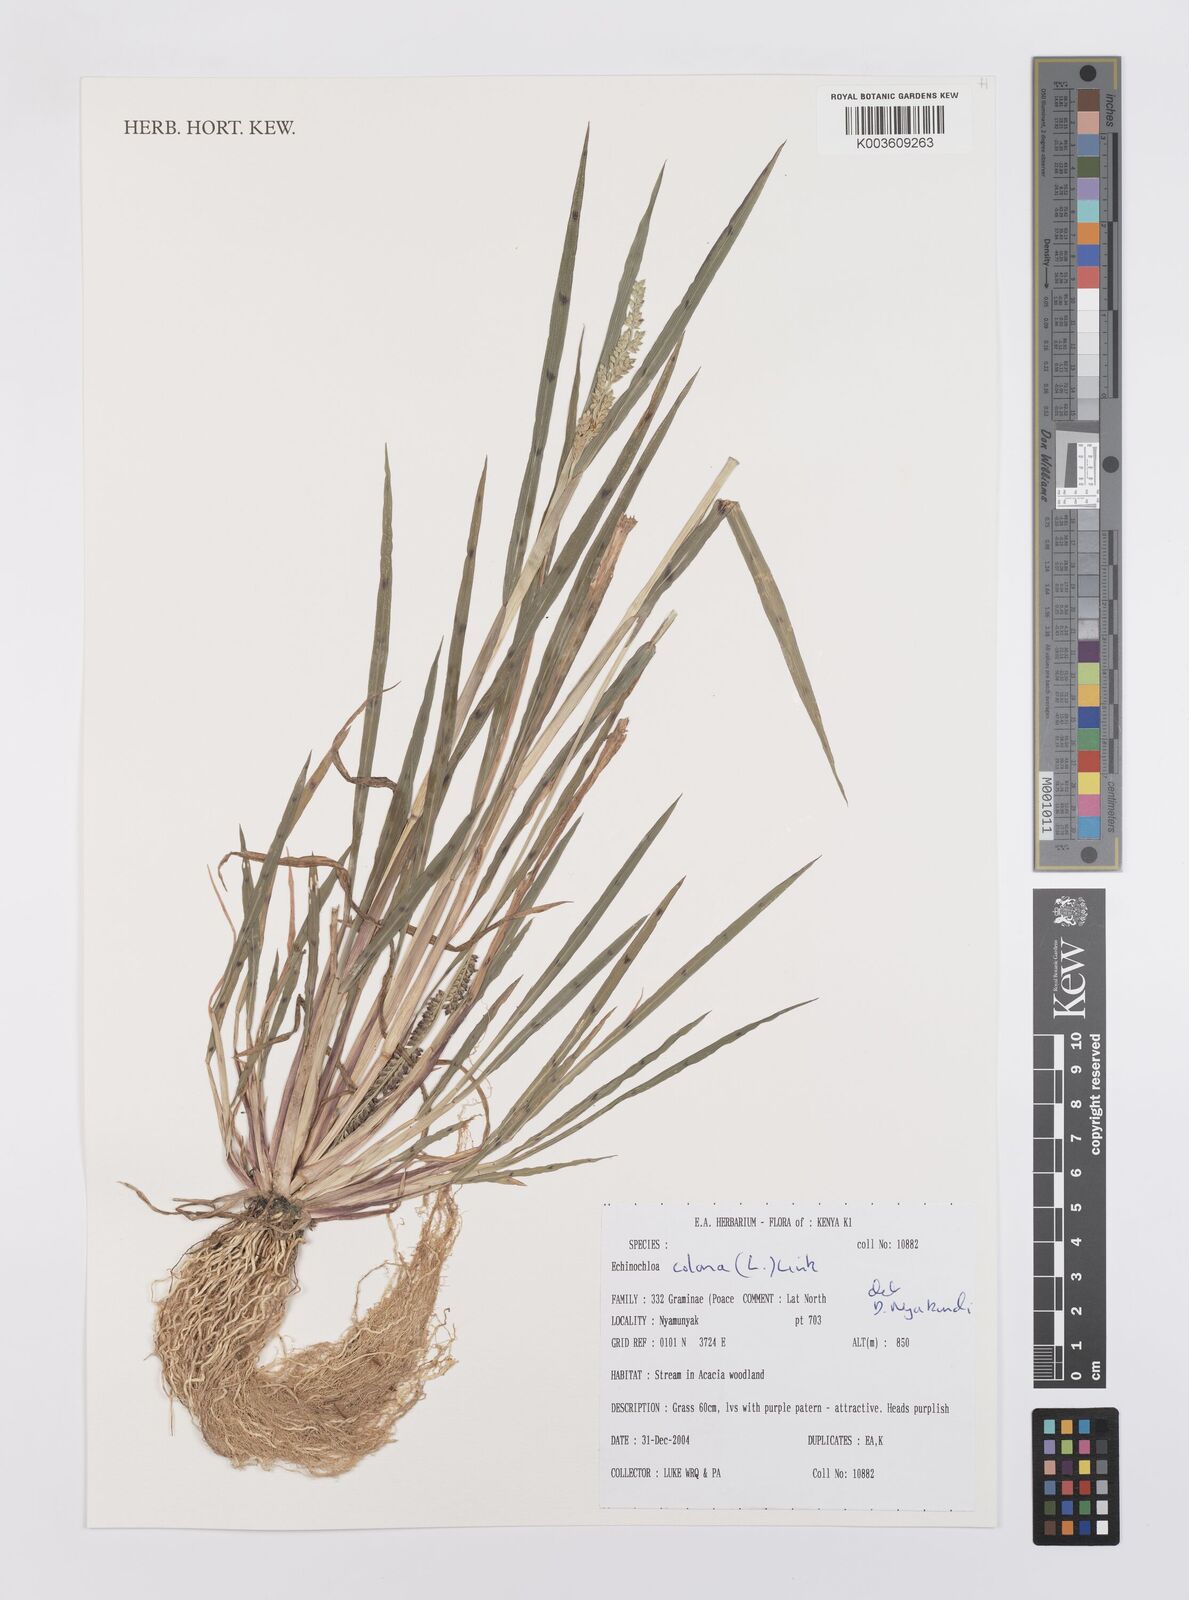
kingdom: Plantae
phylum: Tracheophyta
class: Liliopsida
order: Poales
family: Poaceae
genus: Echinochloa
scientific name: Echinochloa colonum
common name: Jungle rice
